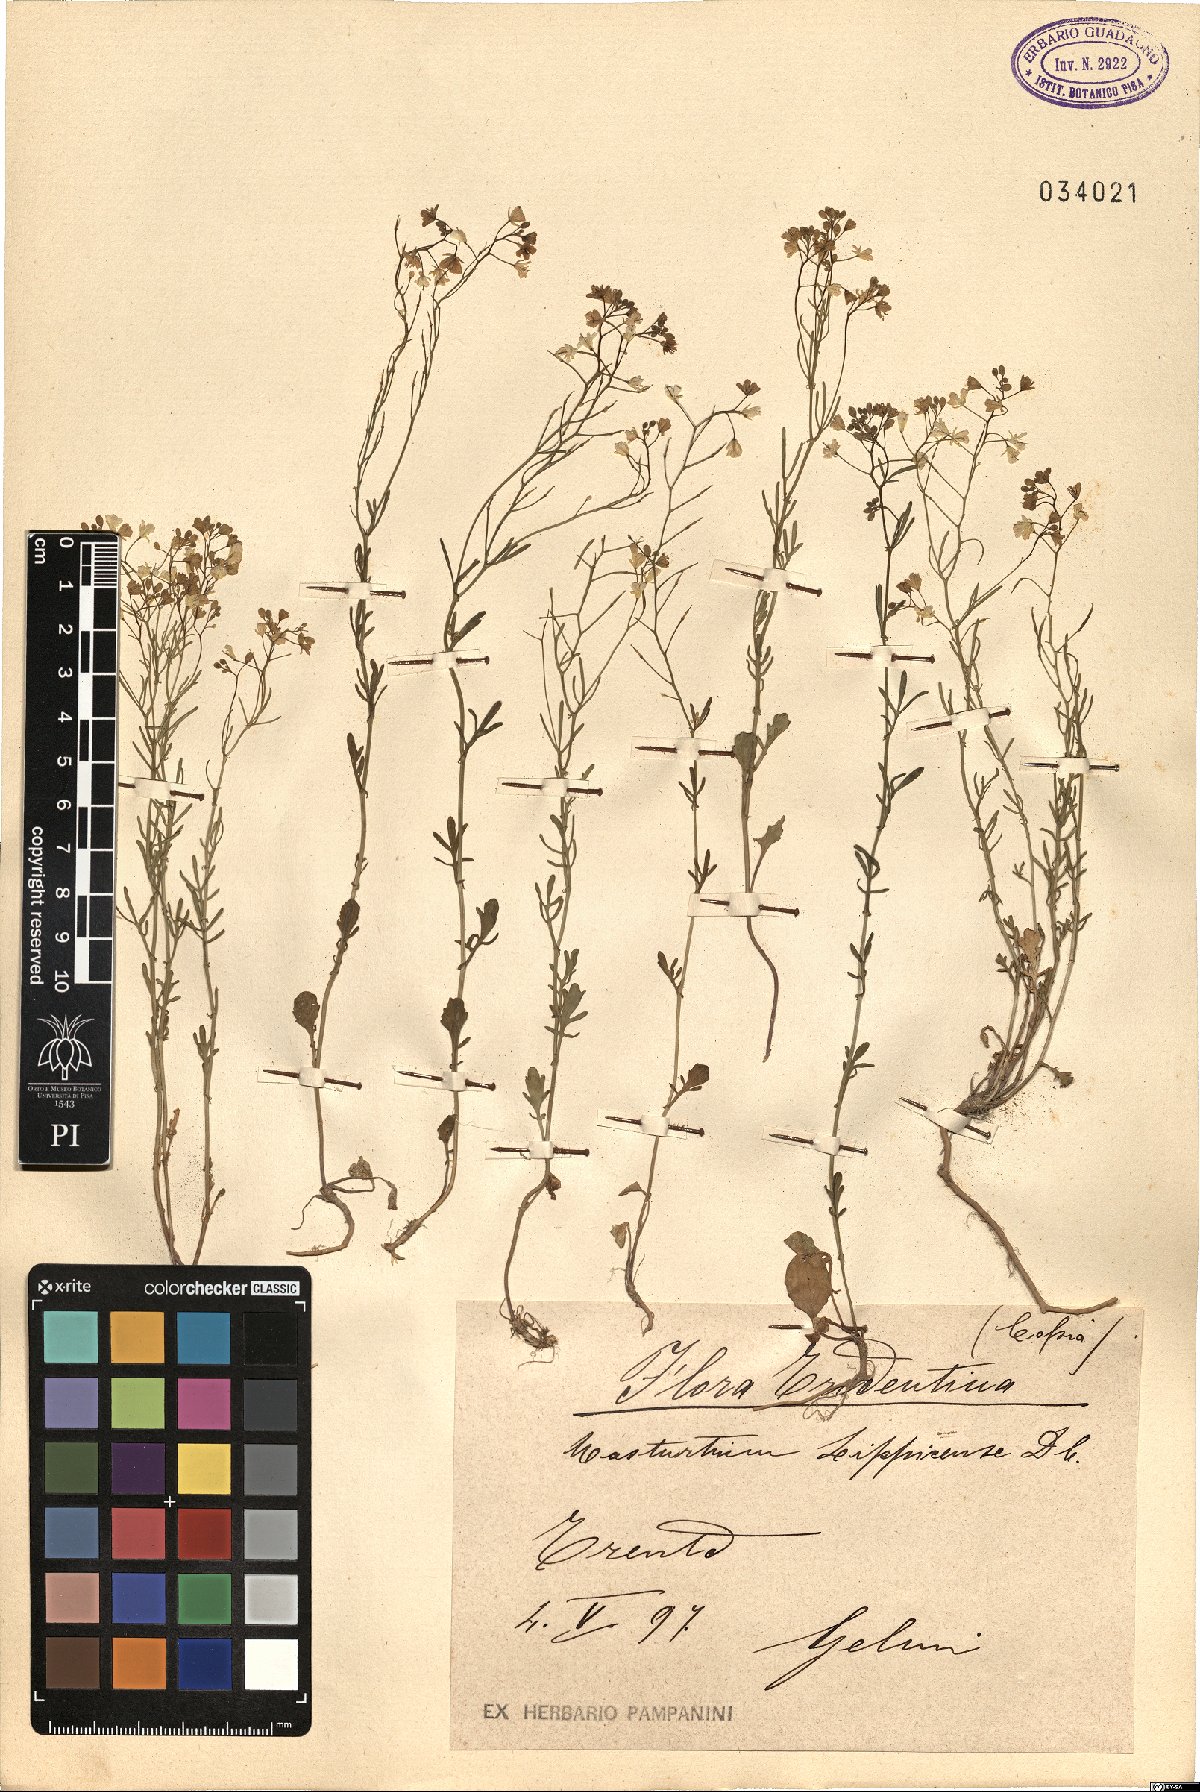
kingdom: Plantae
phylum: Tracheophyta
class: Magnoliopsida
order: Brassicales
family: Brassicaceae
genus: Rorippa
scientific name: Rorippa lippizensis
